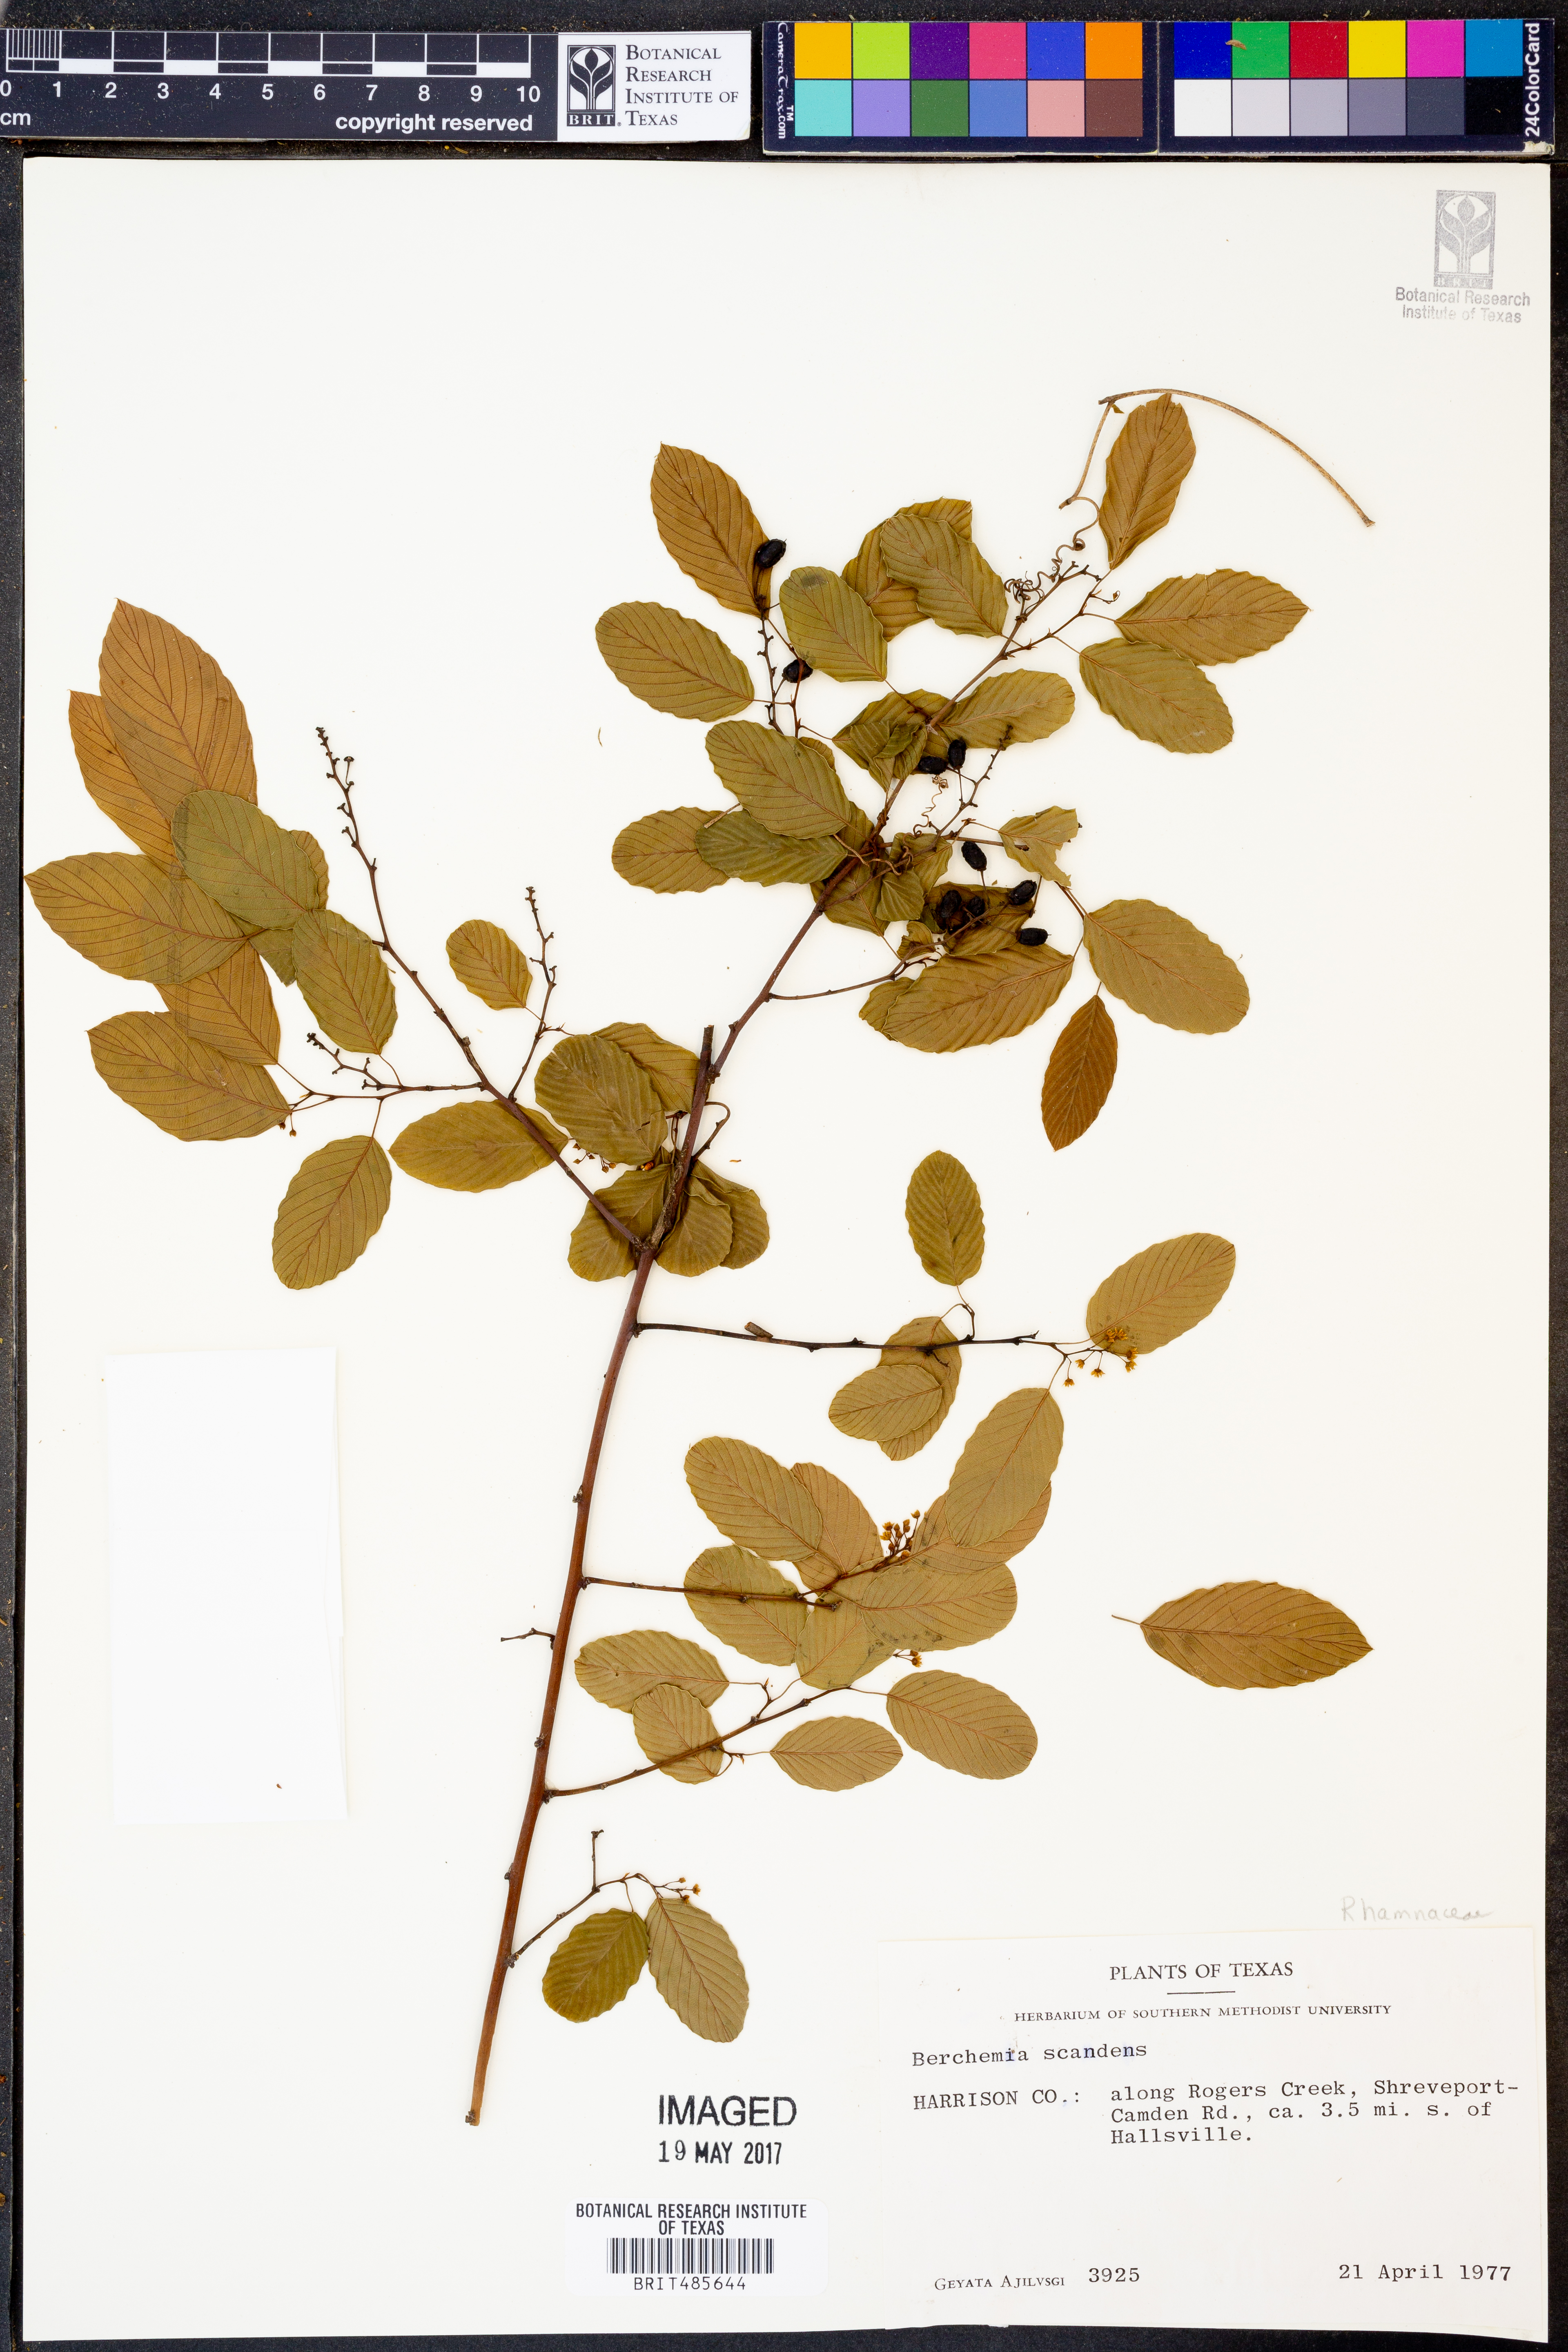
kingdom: Plantae
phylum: Tracheophyta
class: Magnoliopsida
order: Rosales
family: Rhamnaceae
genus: Berchemia
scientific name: Berchemia scandens
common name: Supplejack
